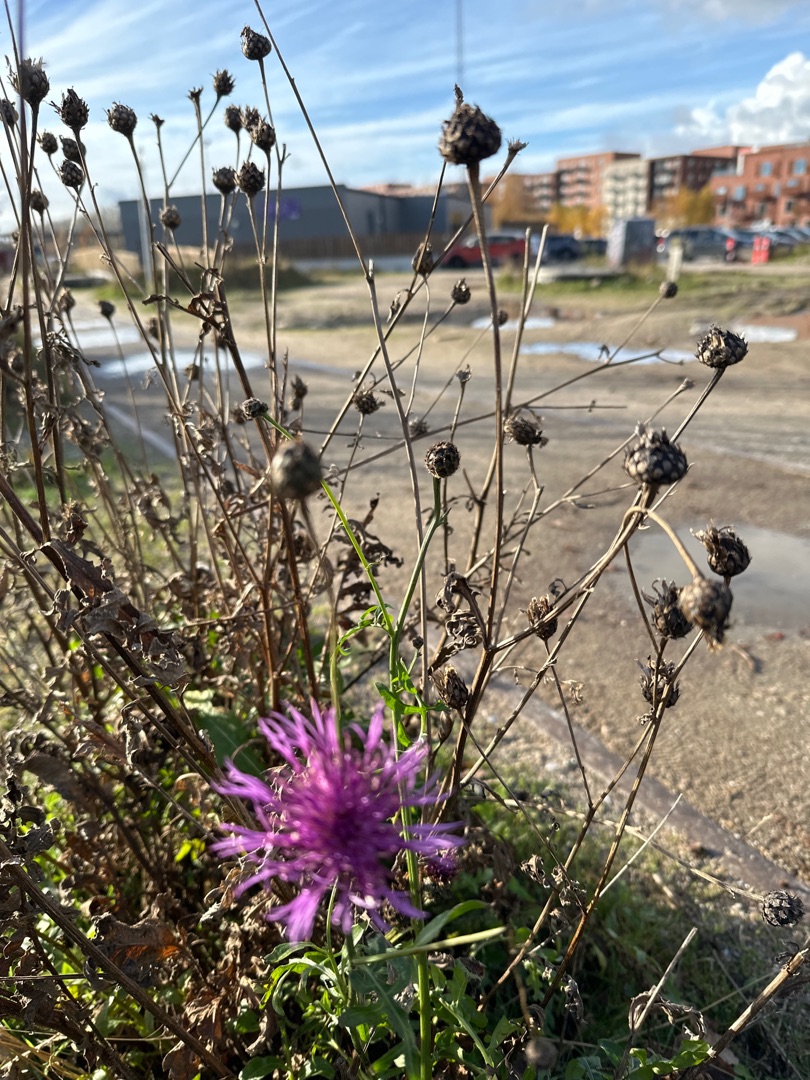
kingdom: Plantae
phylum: Tracheophyta
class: Magnoliopsida
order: Asterales
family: Asteraceae
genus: Centaurea
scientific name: Centaurea scabiosa
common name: Stor knopurt
